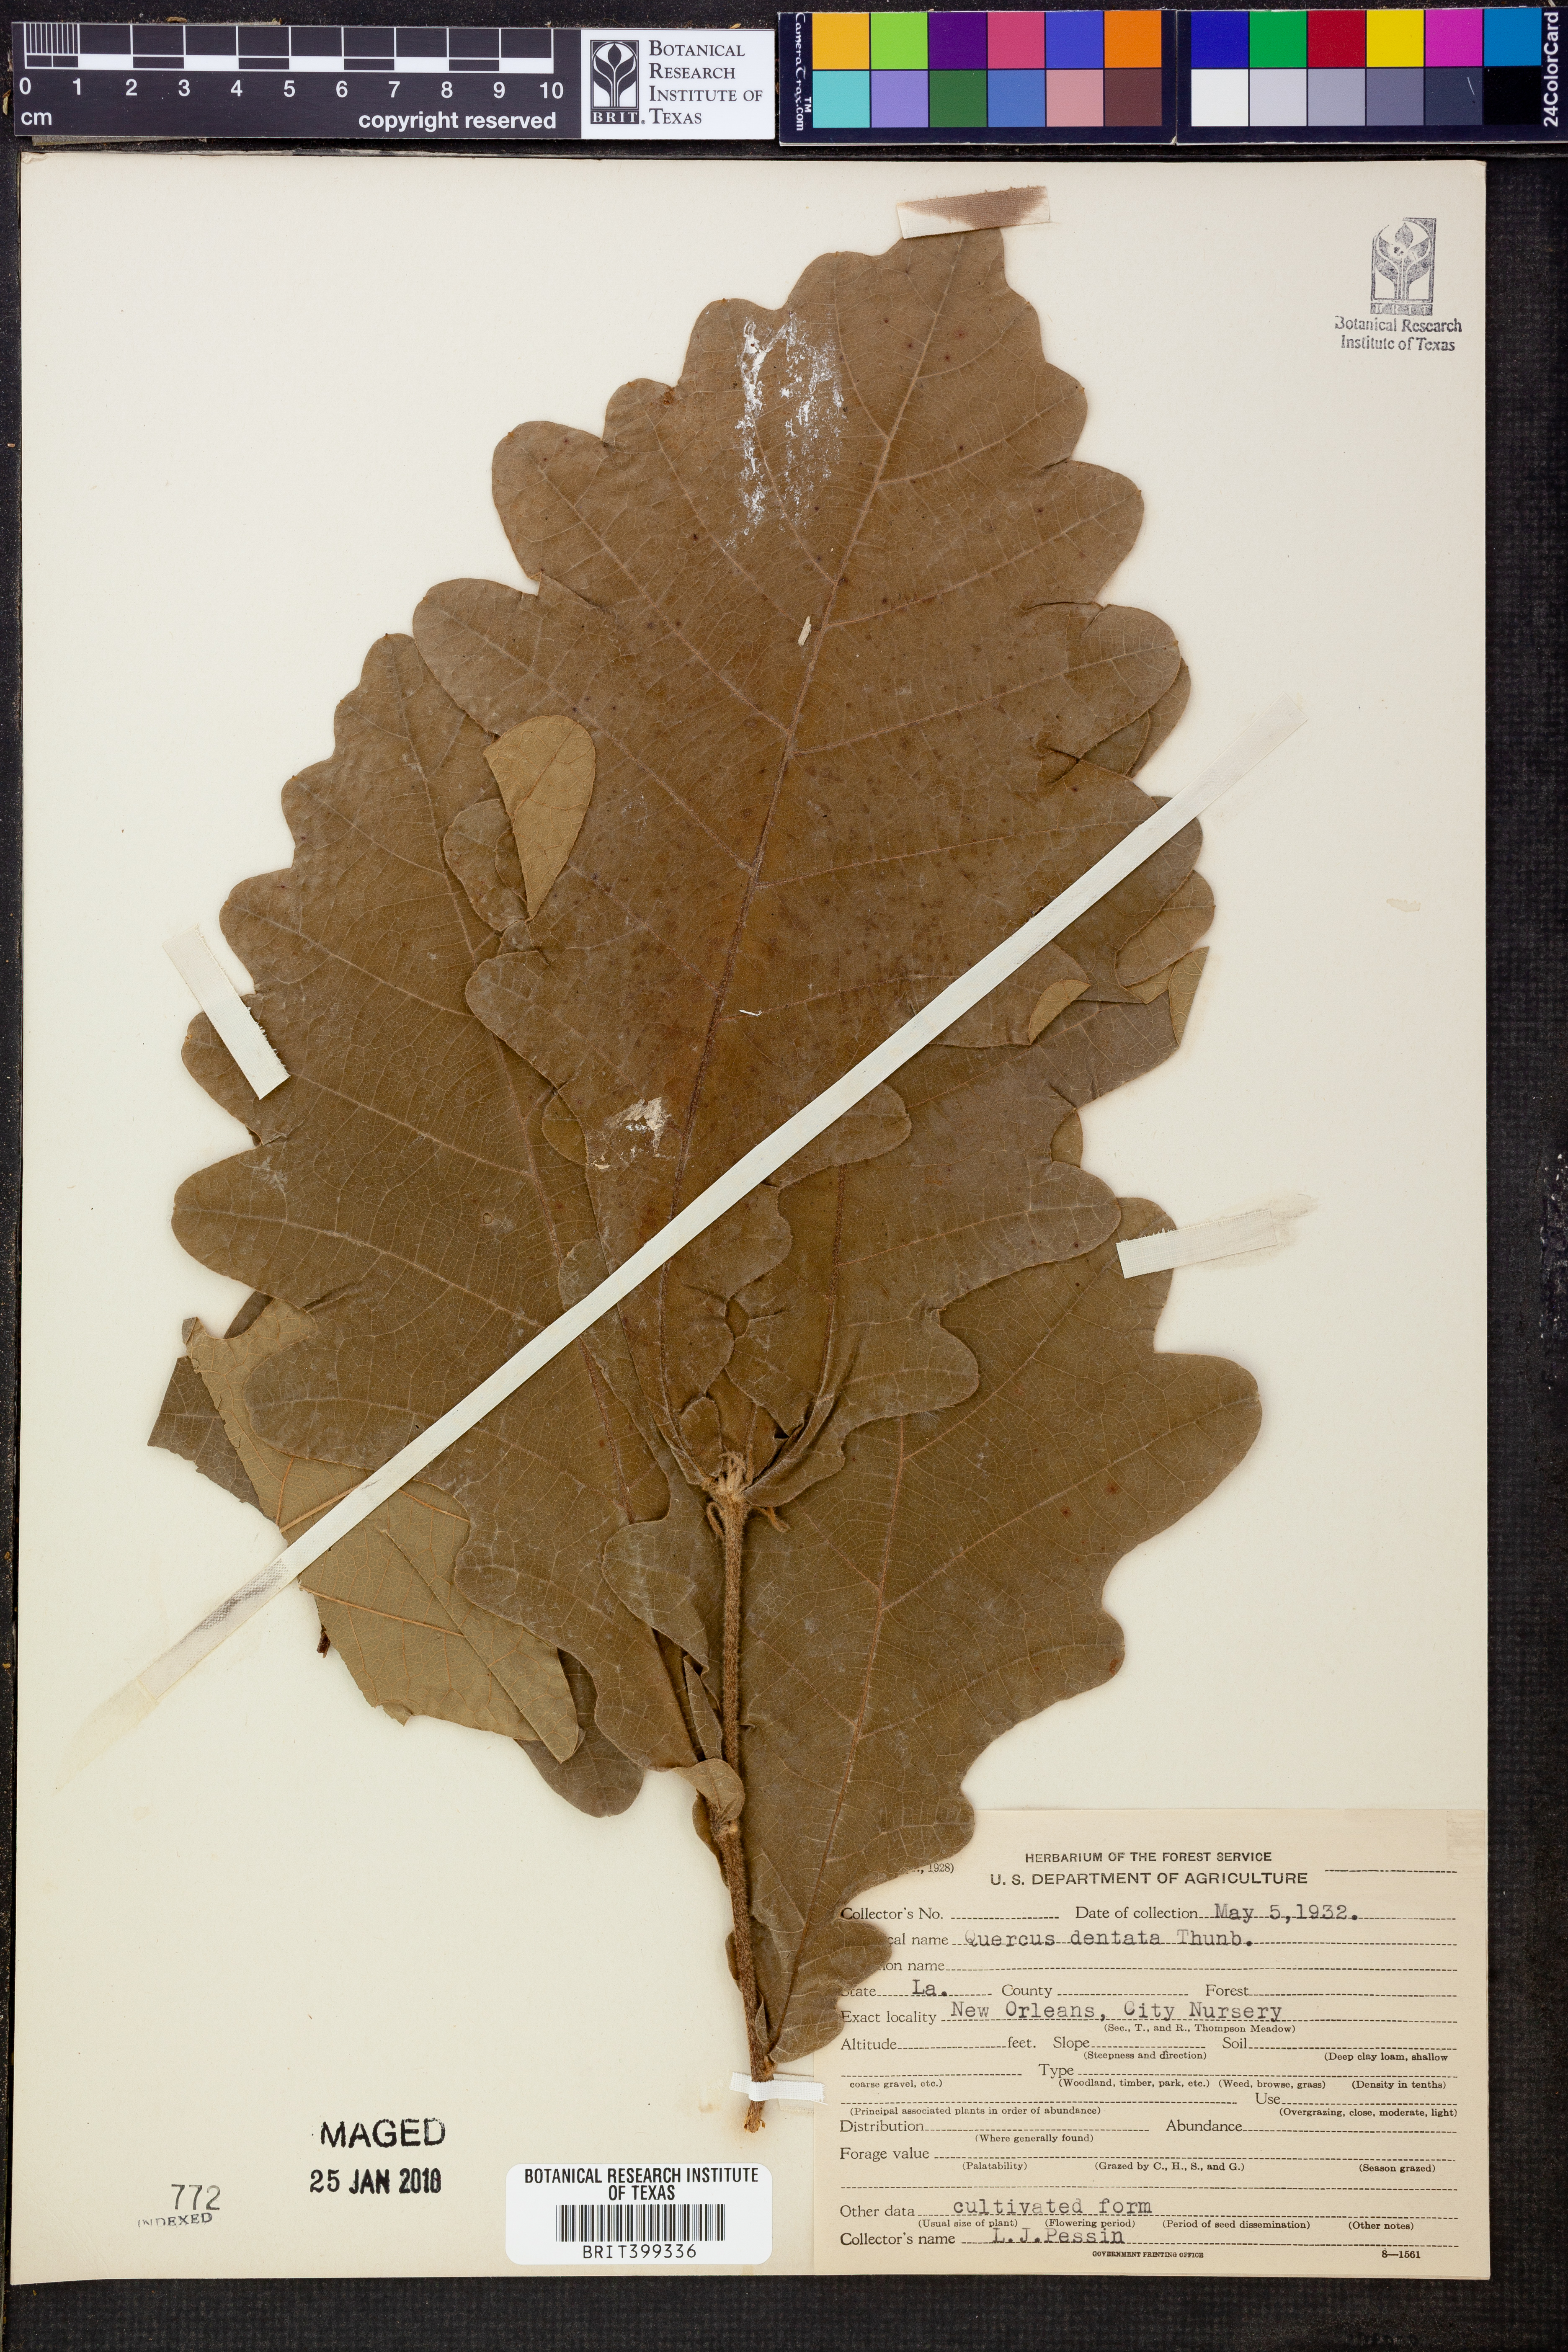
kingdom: Plantae
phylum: Tracheophyta
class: Magnoliopsida
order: Fagales
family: Fagaceae
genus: Quercus
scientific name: Quercus dentata
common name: Daimyo oak
